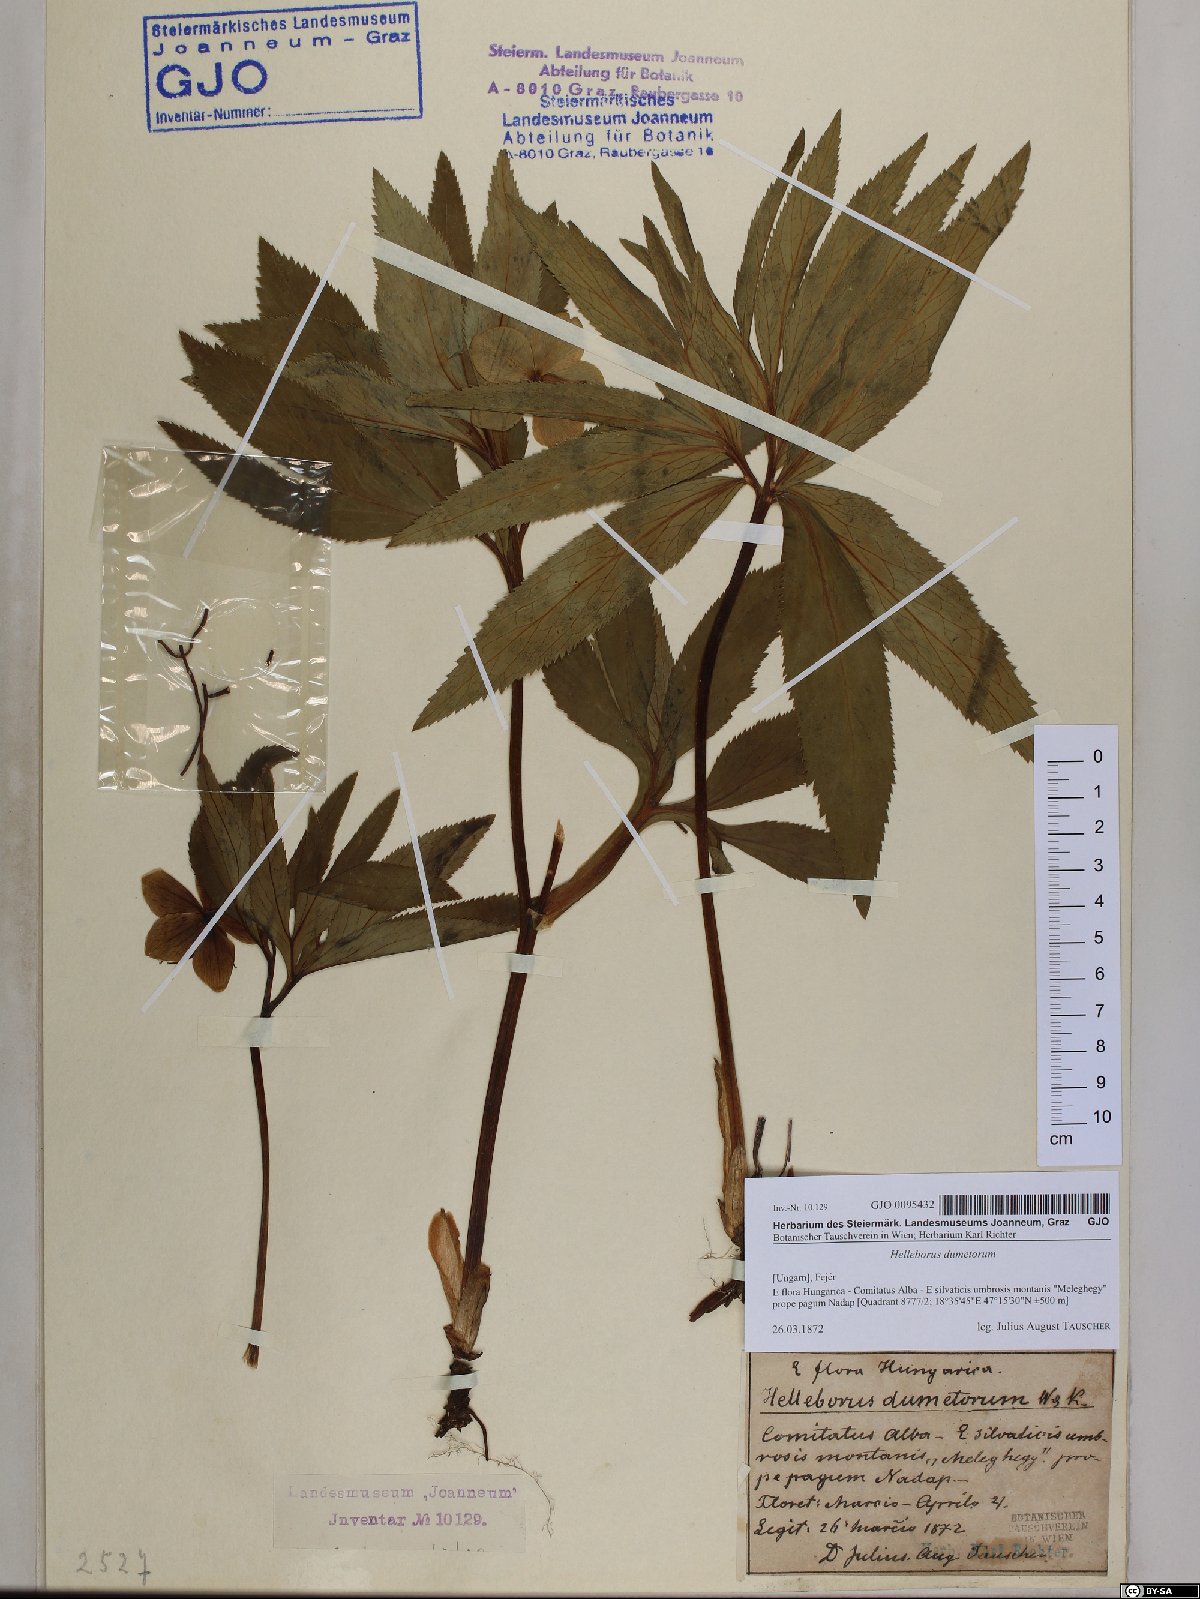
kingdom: Plantae
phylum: Tracheophyta
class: Magnoliopsida
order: Ranunculales
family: Ranunculaceae
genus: Helleborus
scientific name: Helleborus dumetorum
